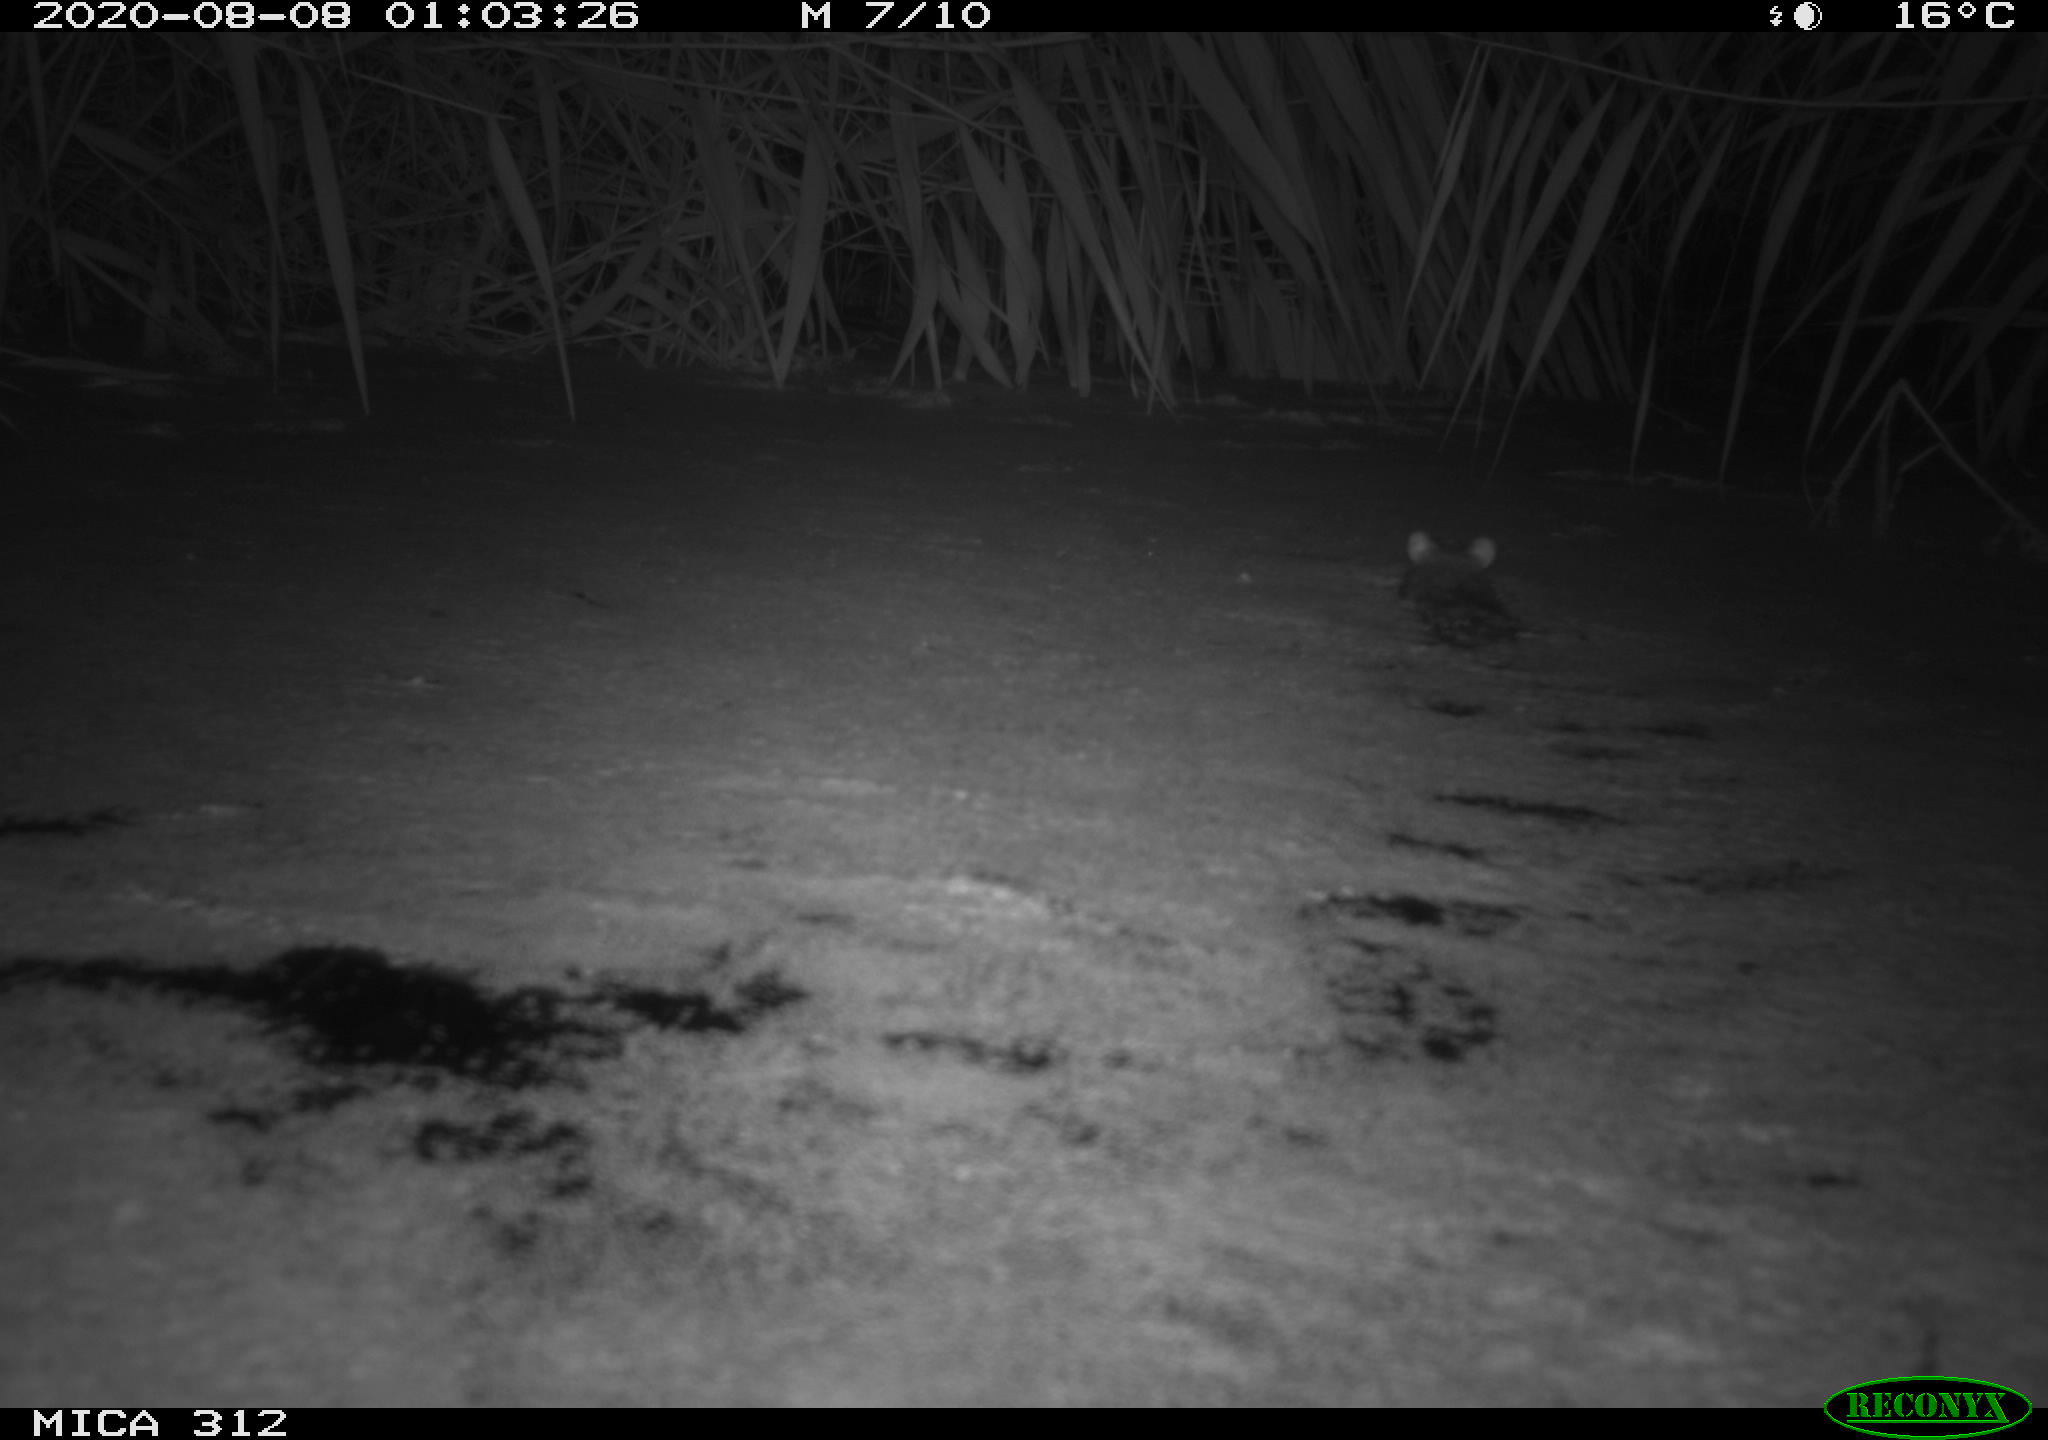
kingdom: Animalia
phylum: Chordata
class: Mammalia
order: Rodentia
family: Cricetidae
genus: Ondatra
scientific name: Ondatra zibethicus
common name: Muskrat
